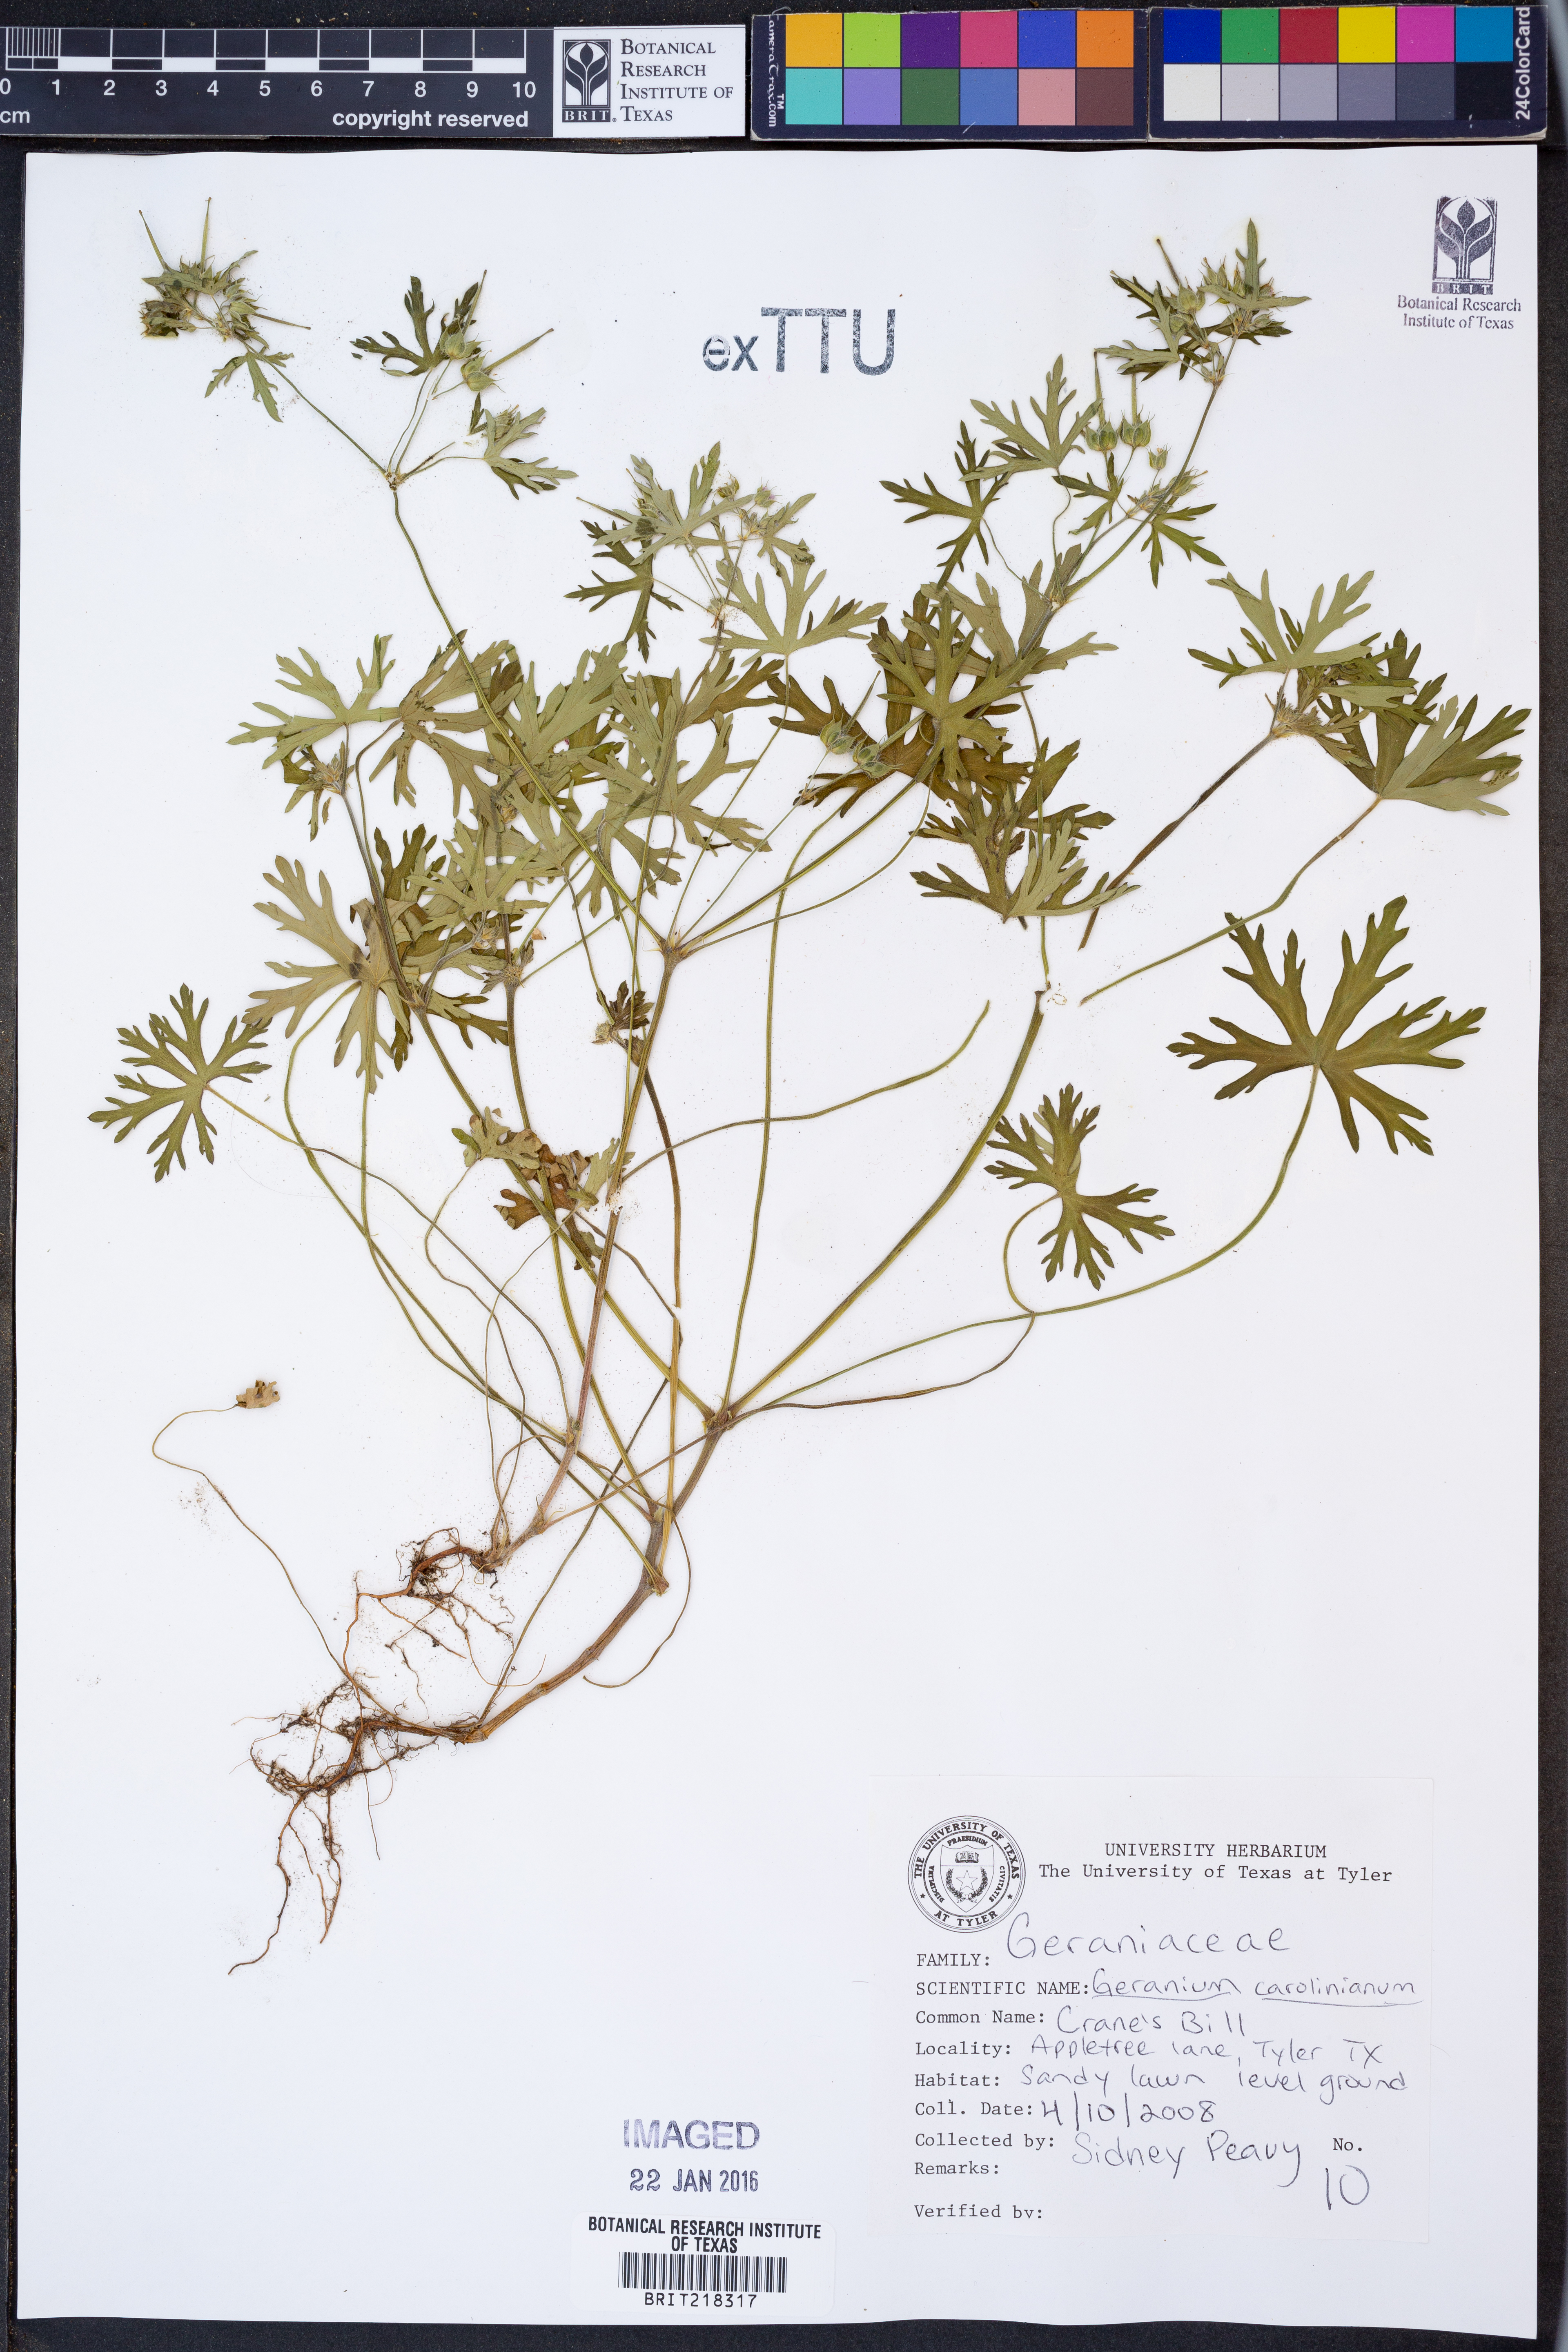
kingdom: Plantae
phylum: Tracheophyta
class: Magnoliopsida
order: Geraniales
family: Geraniaceae
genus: Geranium
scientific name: Geranium carolinianum
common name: Carolina crane's-bill
